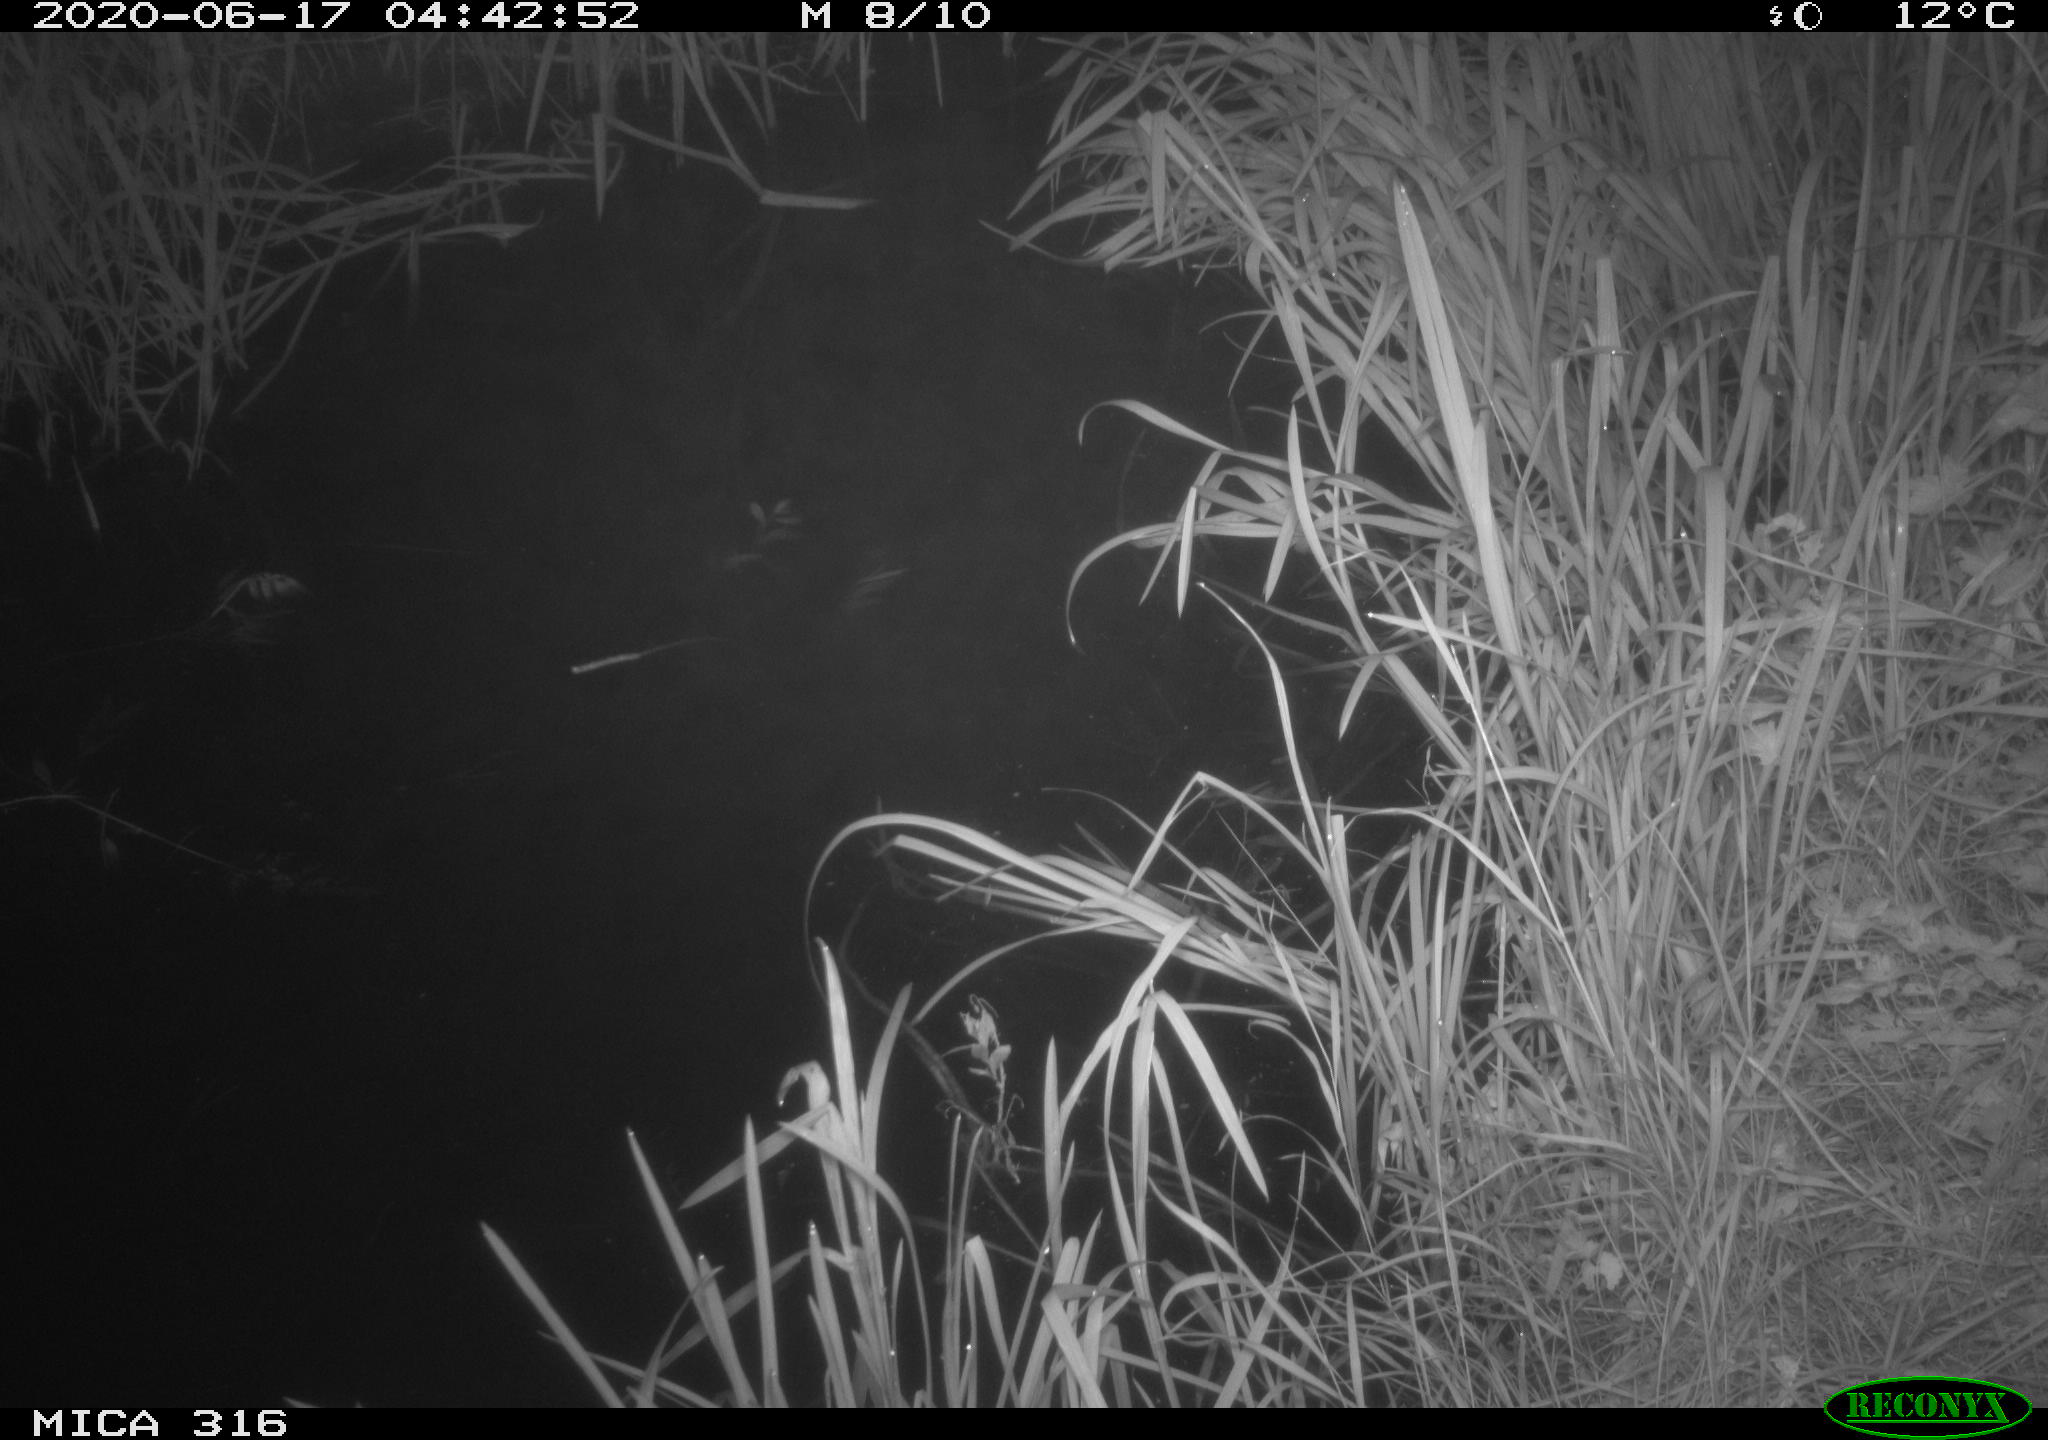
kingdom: Animalia
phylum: Chordata
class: Aves
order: Gruiformes
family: Rallidae
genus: Gallinula
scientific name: Gallinula chloropus
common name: Common moorhen
